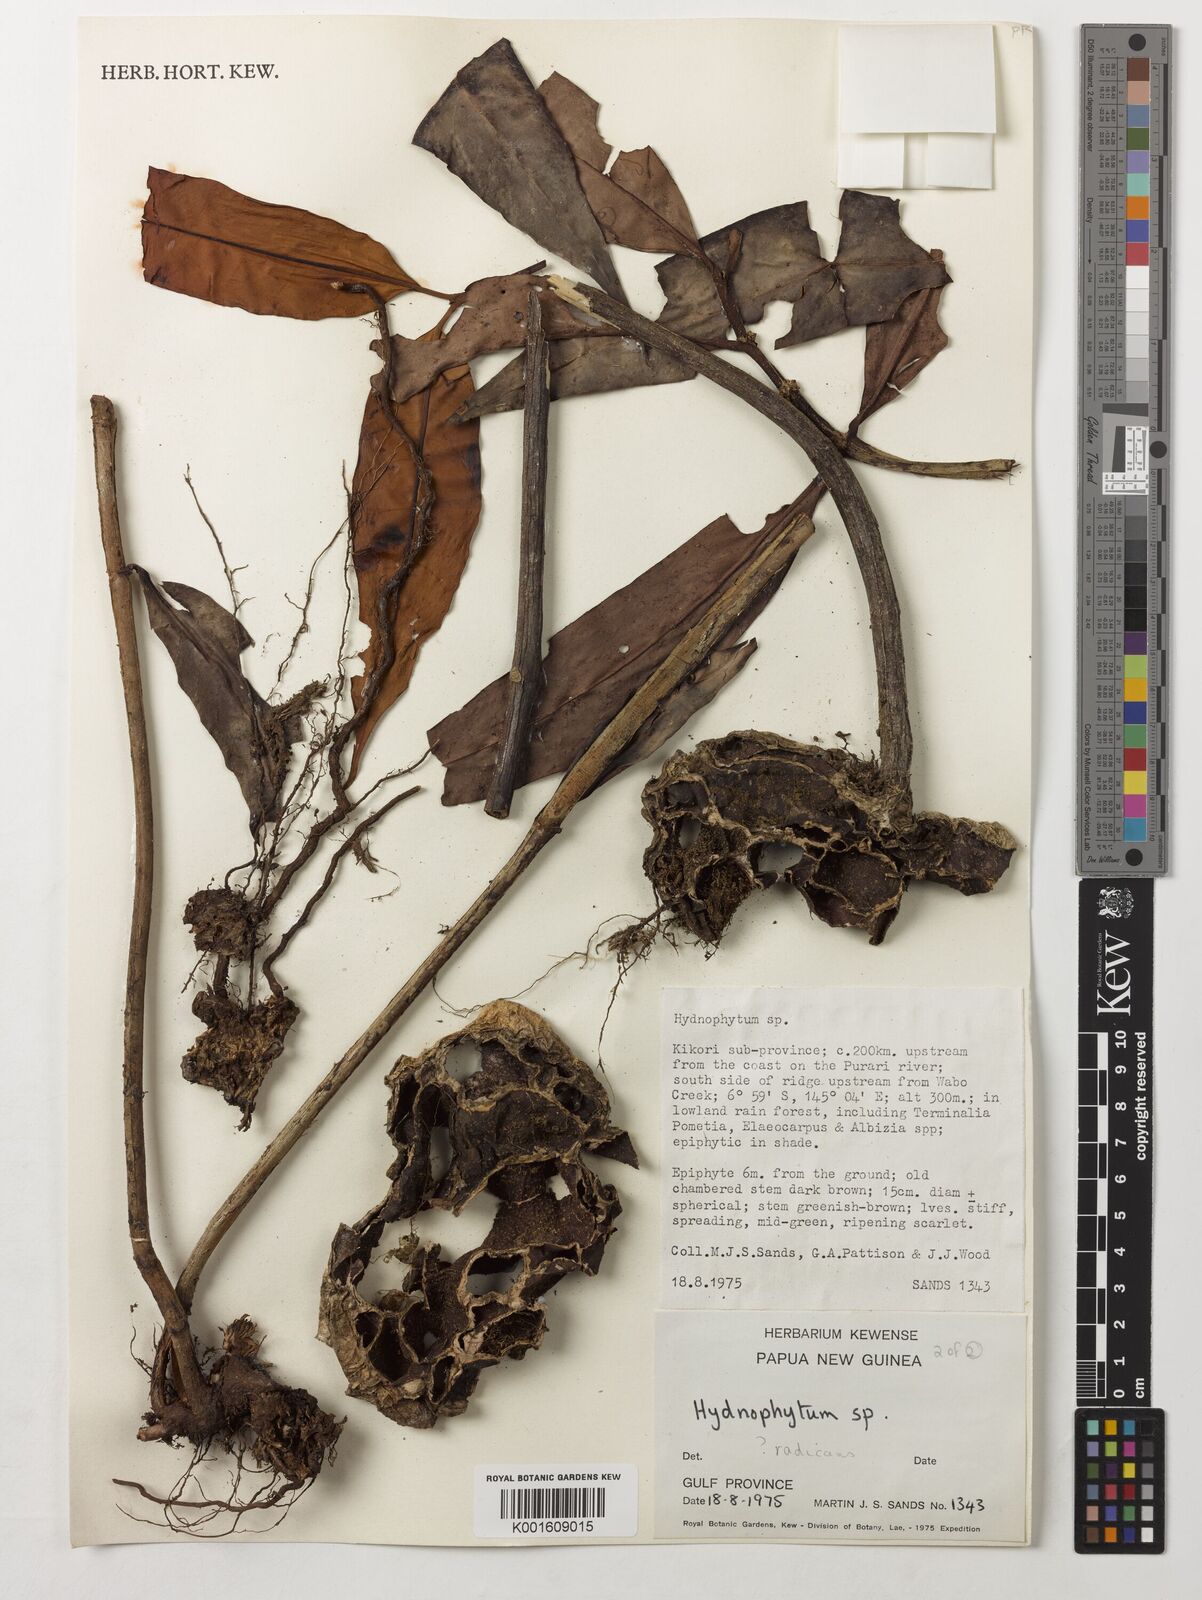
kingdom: Plantae
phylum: Tracheophyta
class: Magnoliopsida
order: Gentianales
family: Rubiaceae
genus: Hydnophytum
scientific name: Hydnophytum
